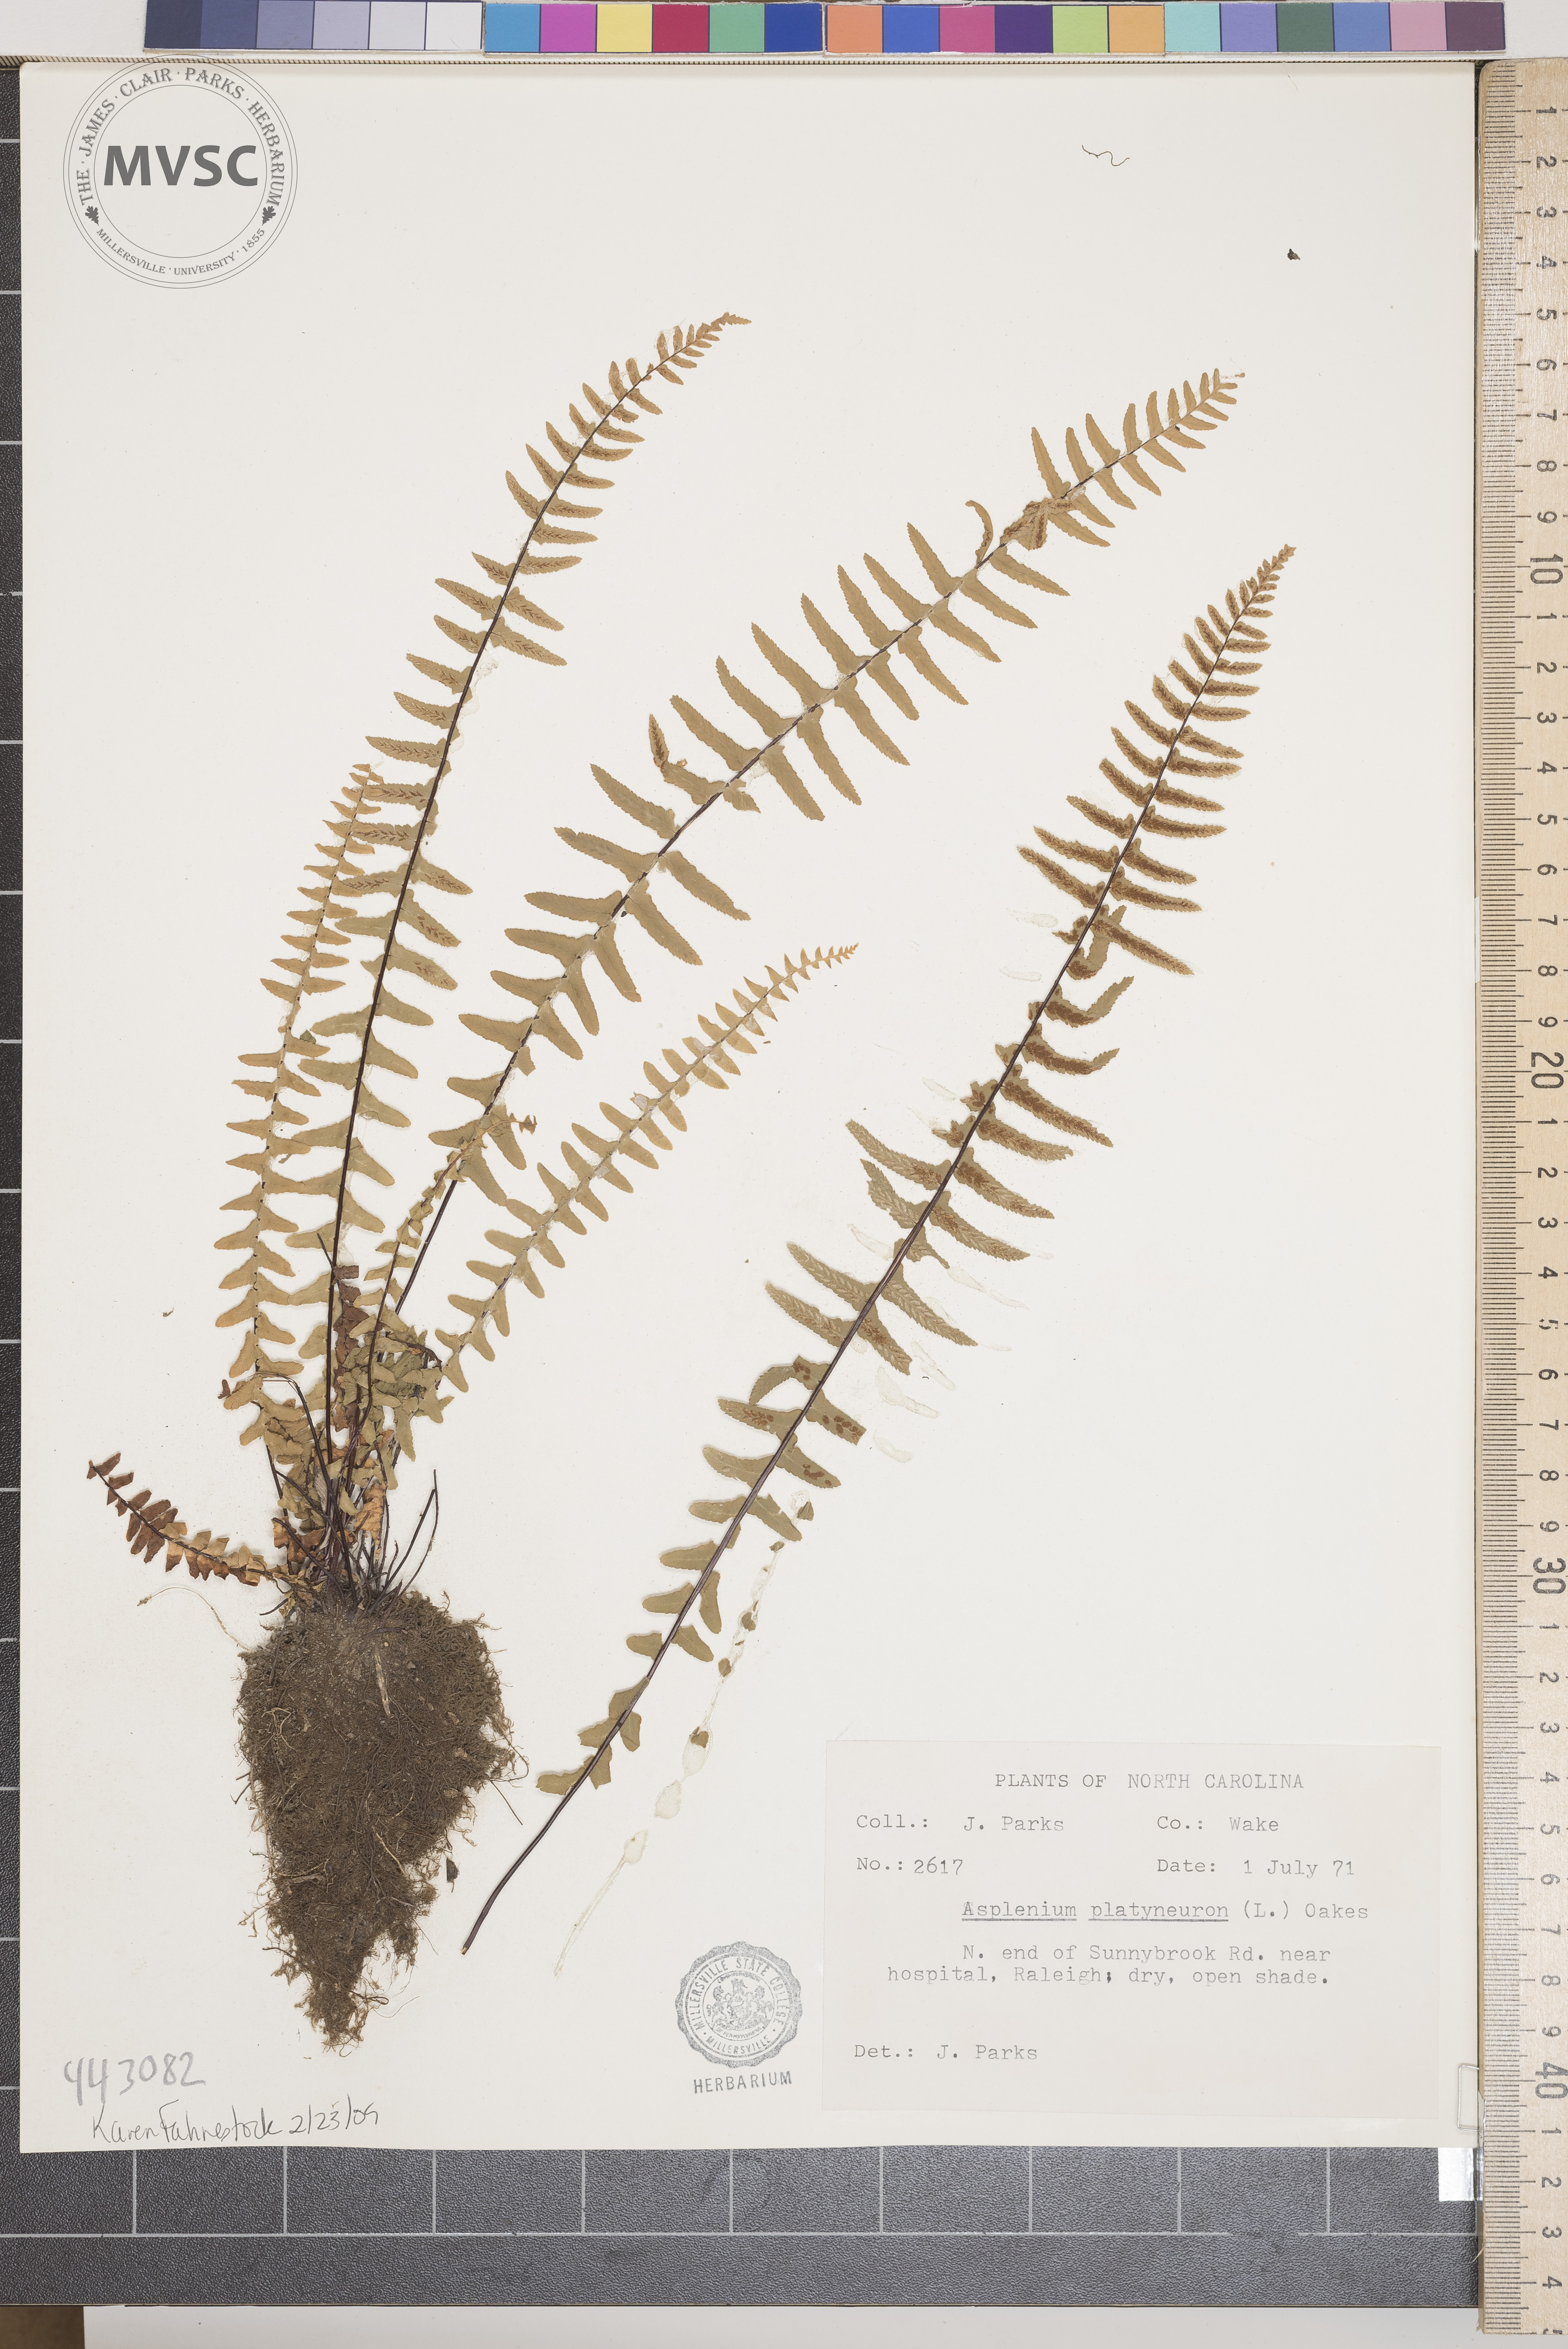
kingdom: Plantae
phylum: Tracheophyta
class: Polypodiopsida
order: Polypodiales
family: Aspleniaceae
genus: Asplenium
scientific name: Asplenium platyneuron
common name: Ebony spleenwort
